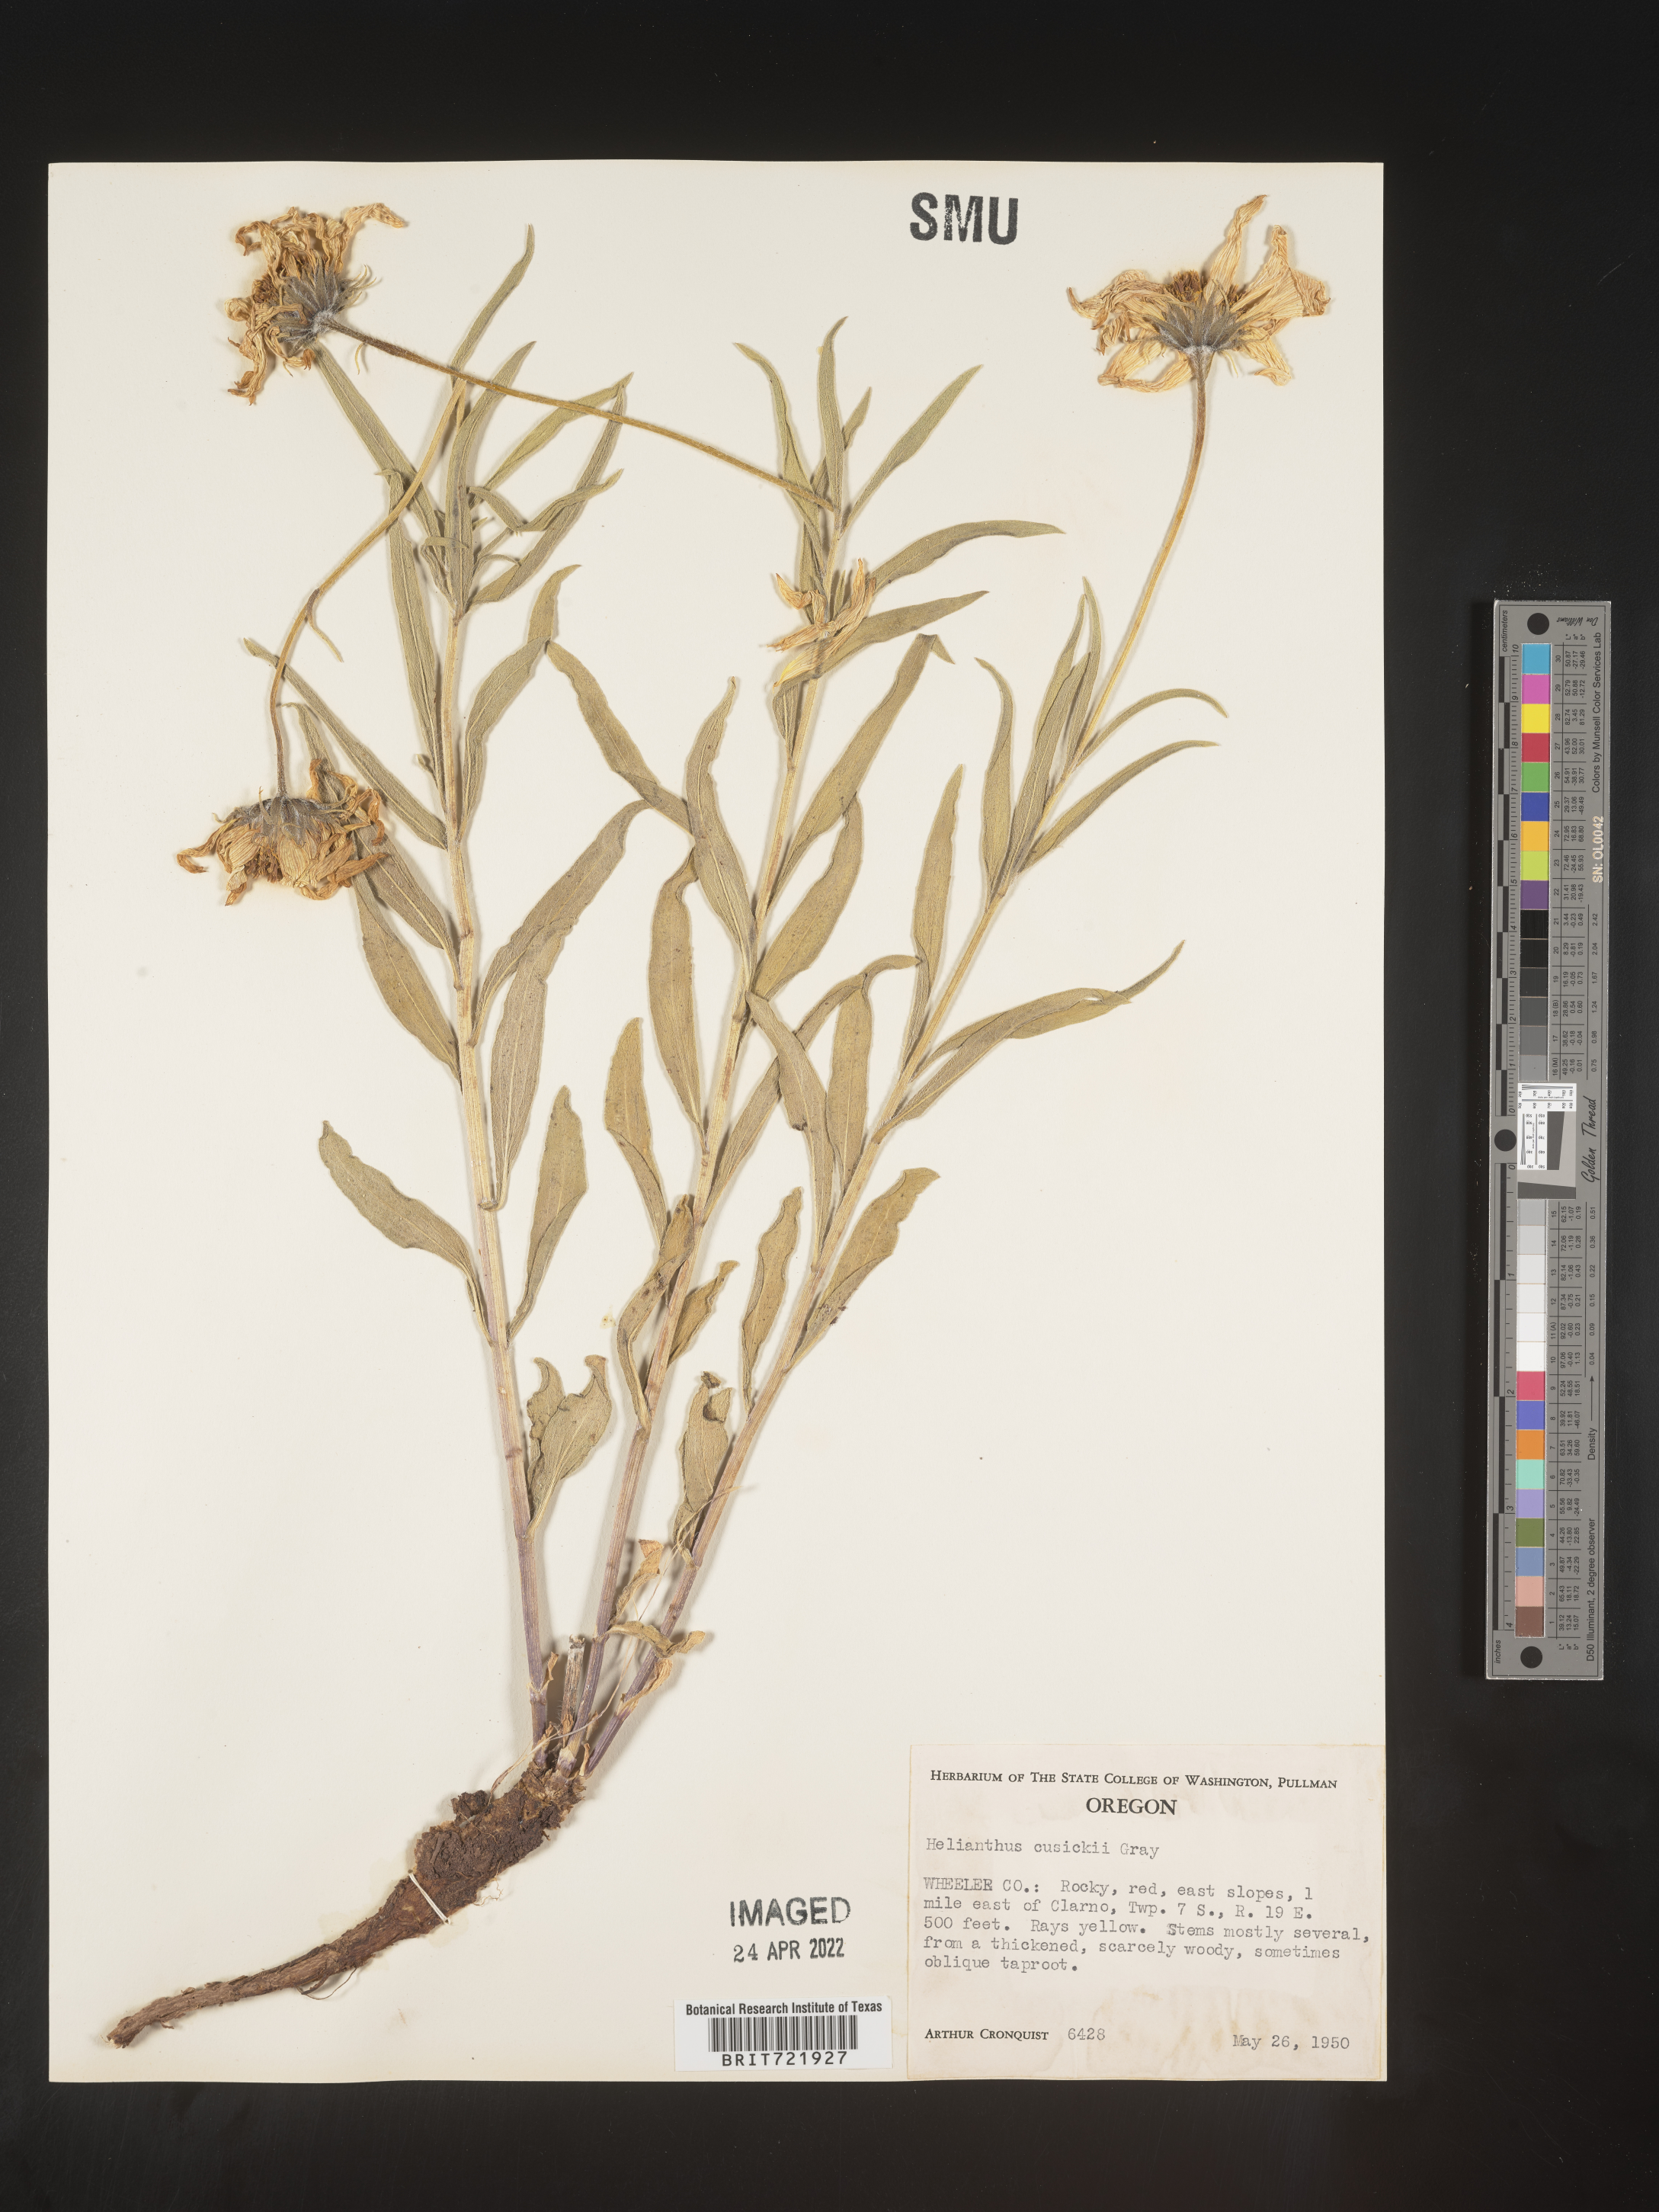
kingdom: Plantae
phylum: Tracheophyta
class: Magnoliopsida
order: Asterales
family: Asteraceae
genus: Helianthus
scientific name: Helianthus cusickii
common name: Cusick's sunflower
